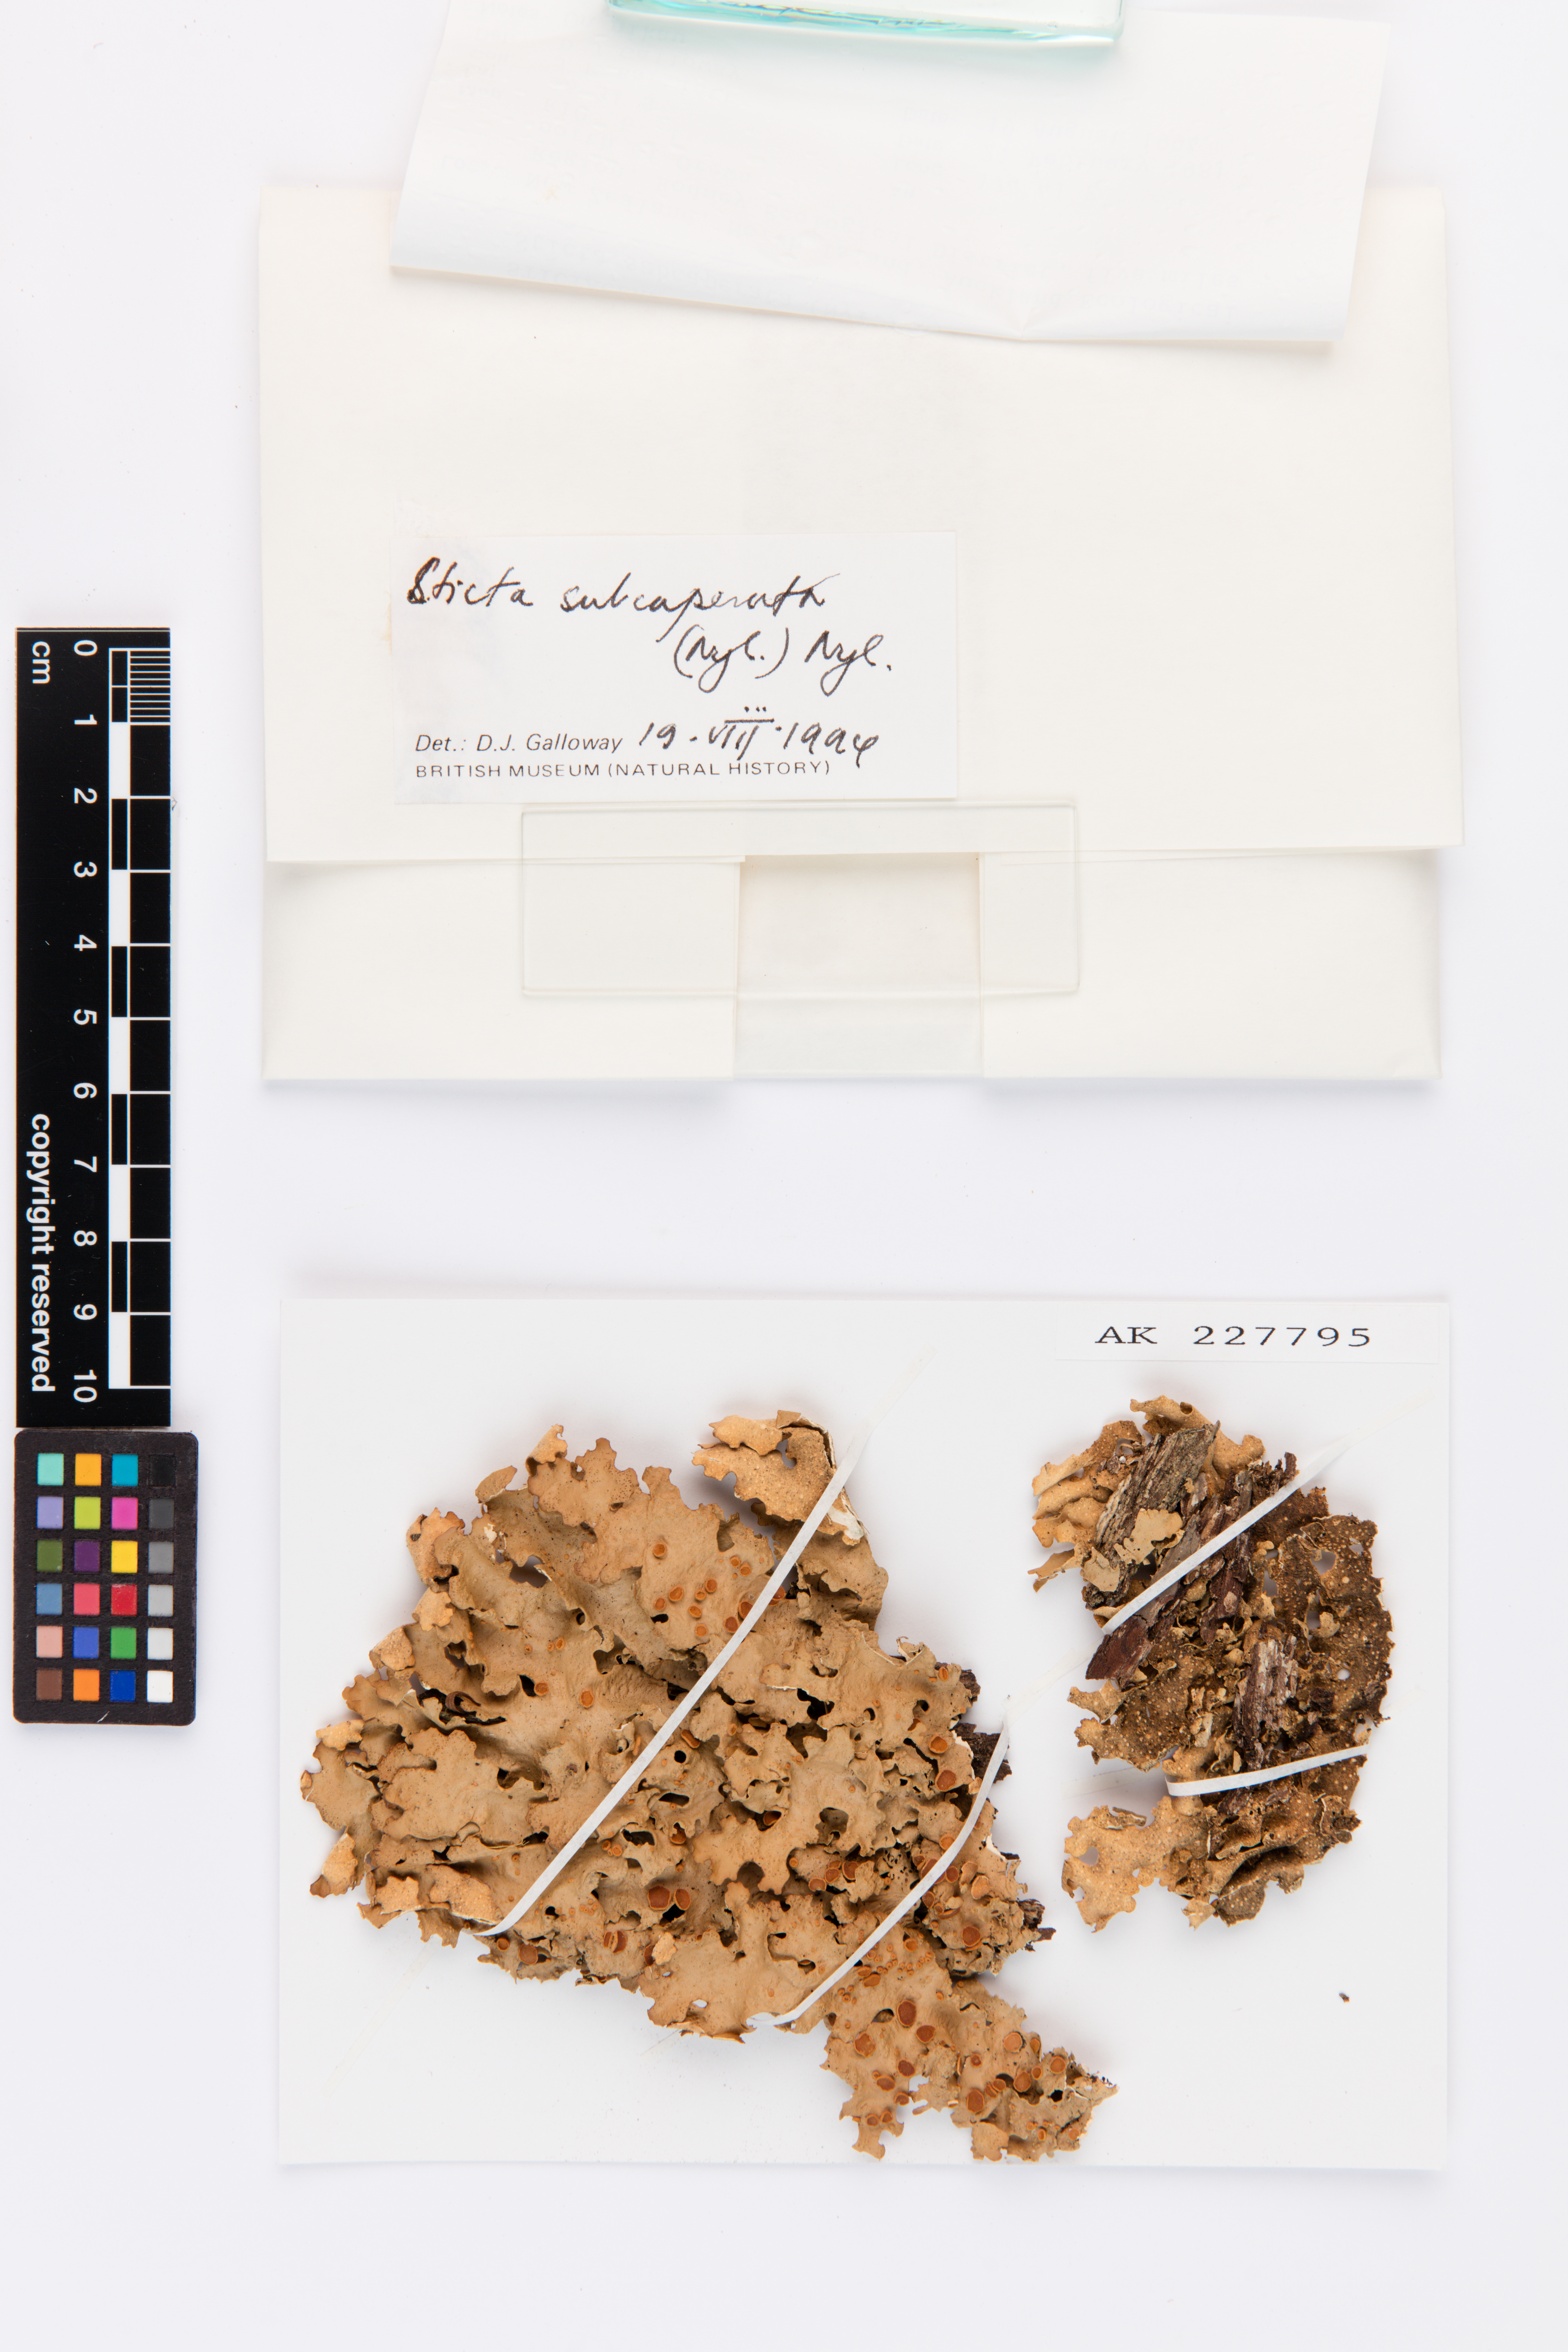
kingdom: Fungi
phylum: Ascomycota
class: Lecanoromycetes
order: Peltigerales
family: Lobariaceae
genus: Sticta
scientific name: Sticta subcaperata
